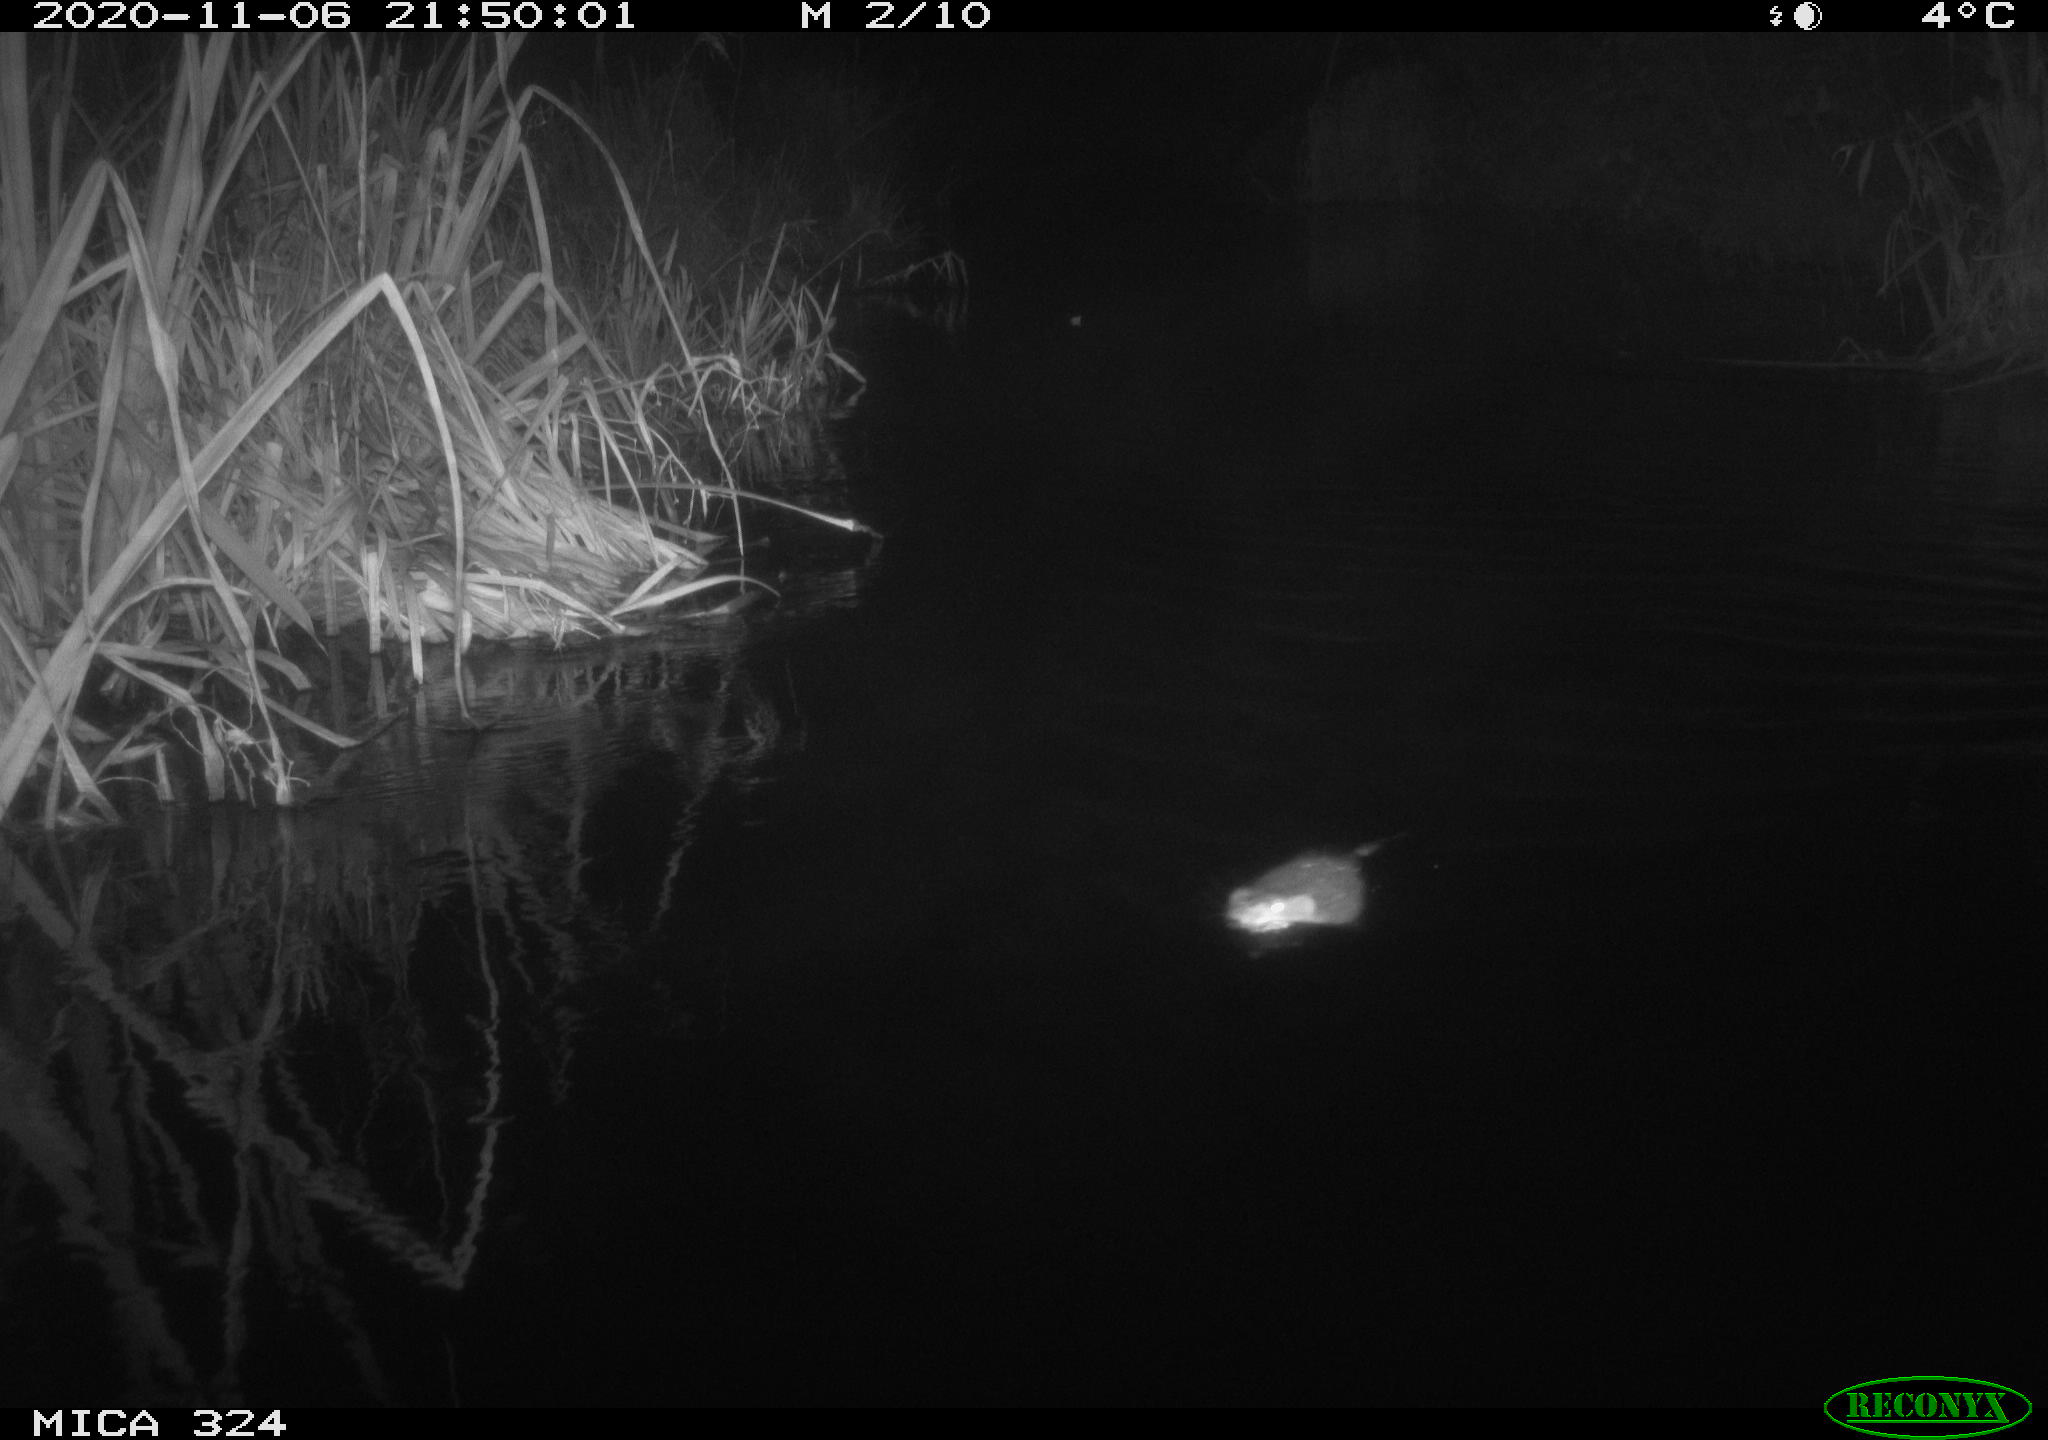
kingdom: Animalia
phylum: Chordata
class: Mammalia
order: Rodentia
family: Cricetidae
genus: Ondatra
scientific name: Ondatra zibethicus
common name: Muskrat
